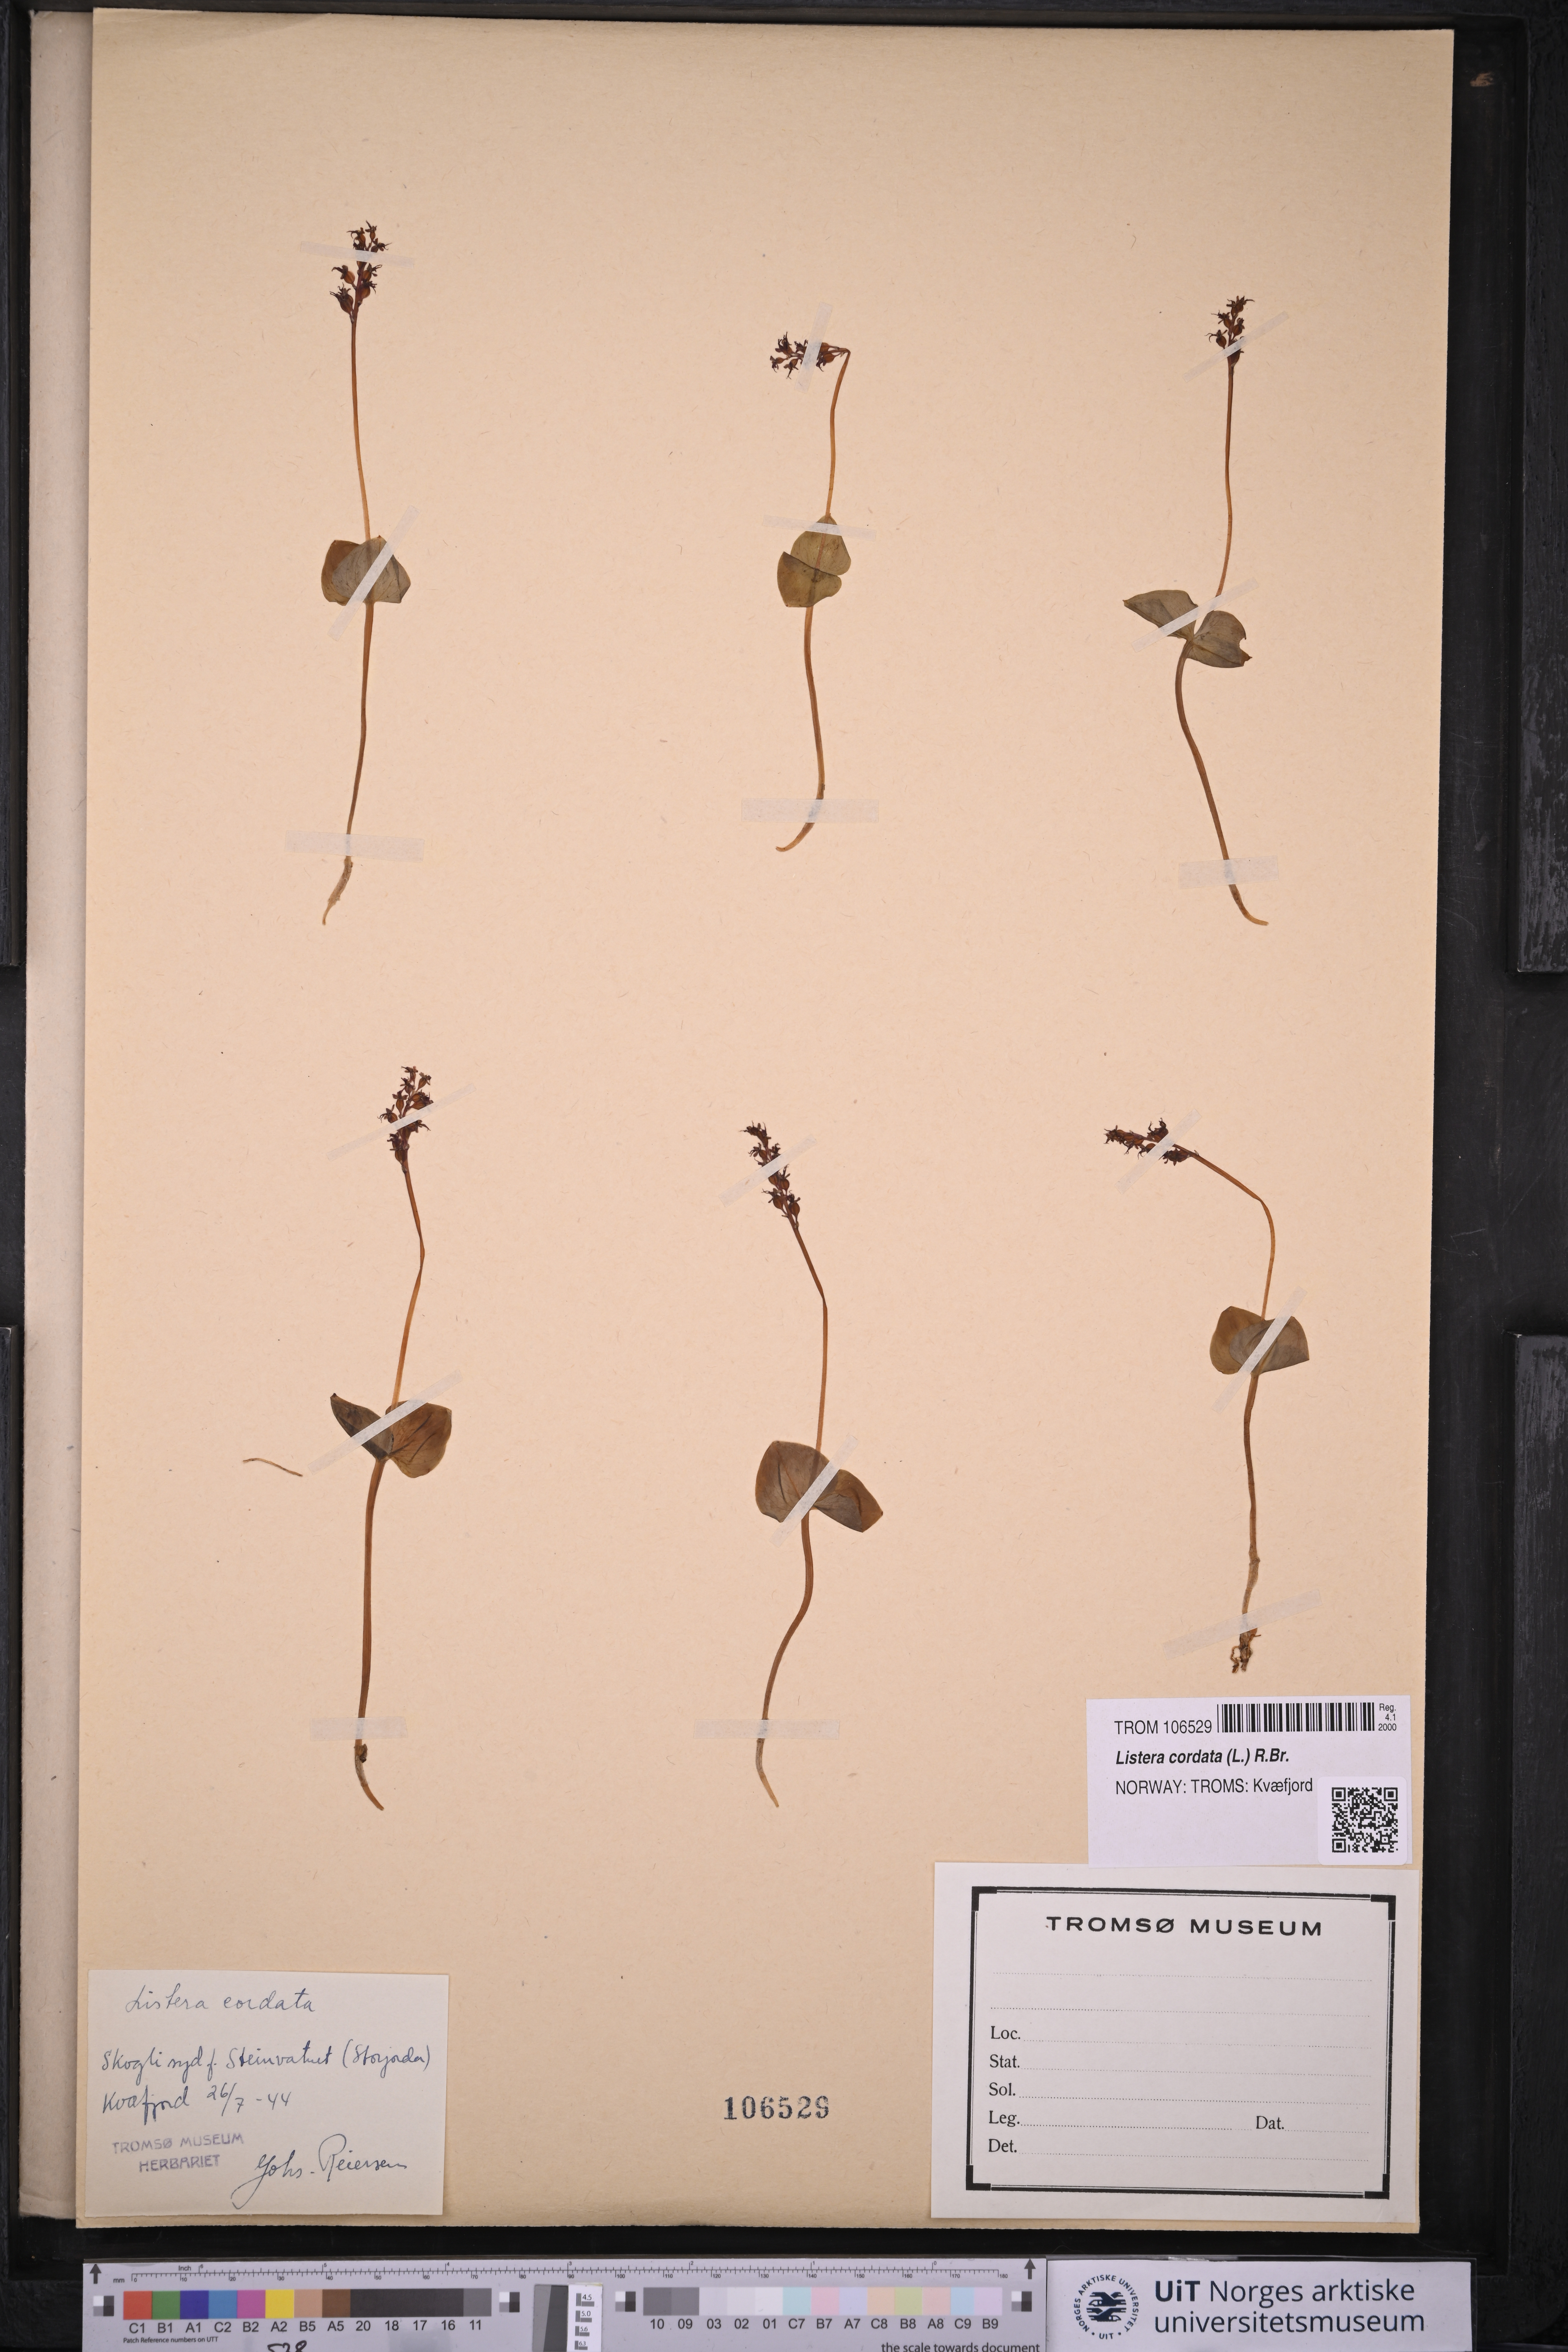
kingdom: Plantae
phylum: Tracheophyta
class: Liliopsida
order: Asparagales
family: Orchidaceae
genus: Neottia
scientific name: Neottia cordata
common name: Lesser twayblade
